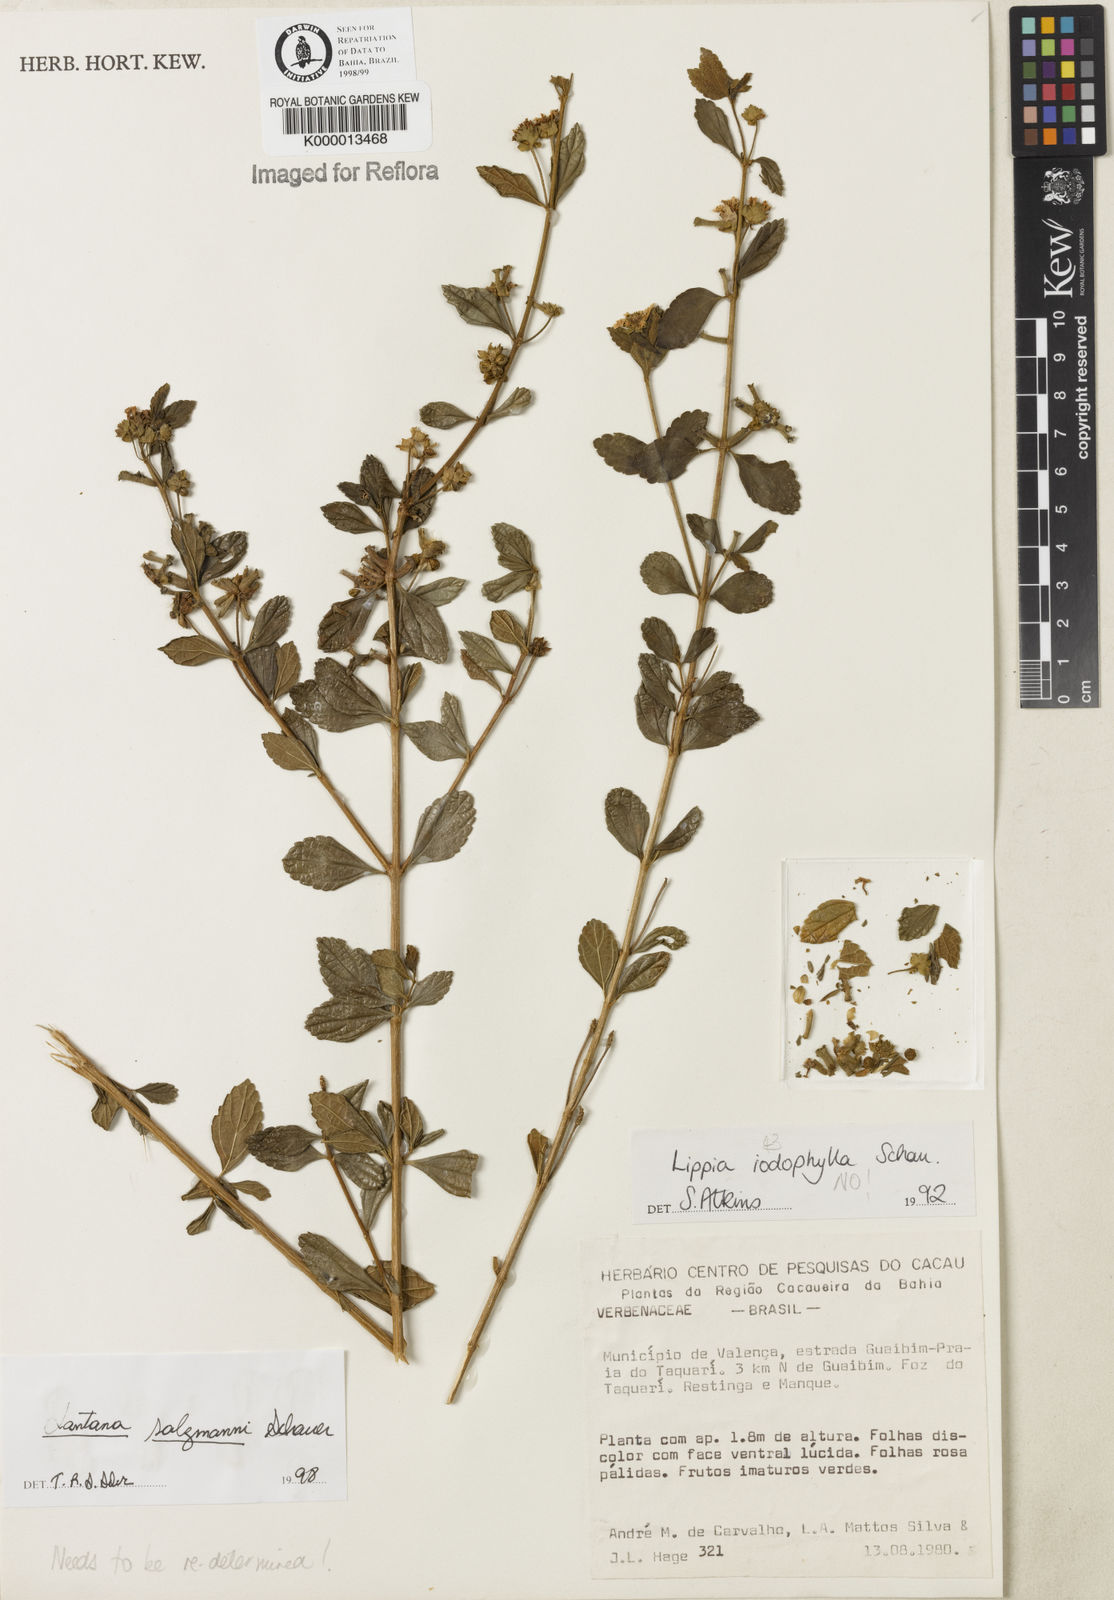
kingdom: Plantae
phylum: Tracheophyta
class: Magnoliopsida
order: Lamiales
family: Verbenaceae
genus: Lantana
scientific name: Lantana salzmannii
